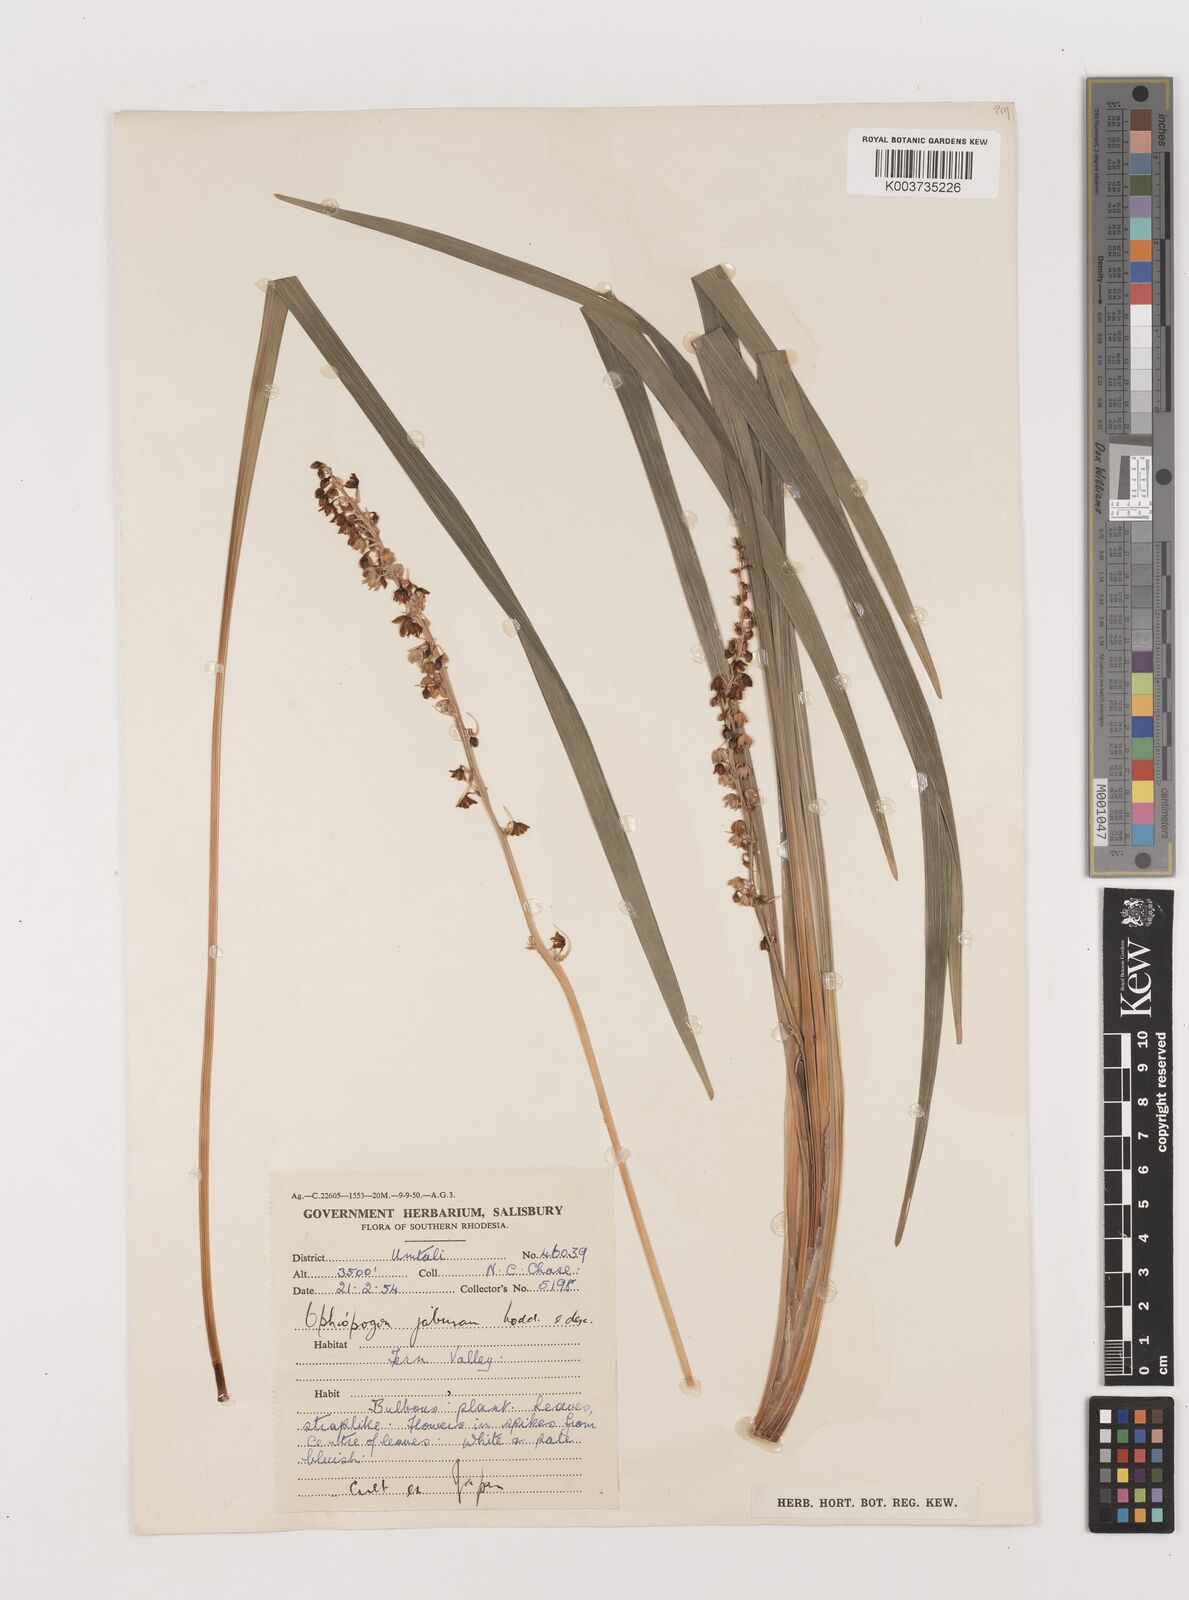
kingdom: Plantae
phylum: Tracheophyta
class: Liliopsida
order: Asparagales
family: Asparagaceae
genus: Ophiopogon
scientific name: Ophiopogon jaburan
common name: Lilyturf
